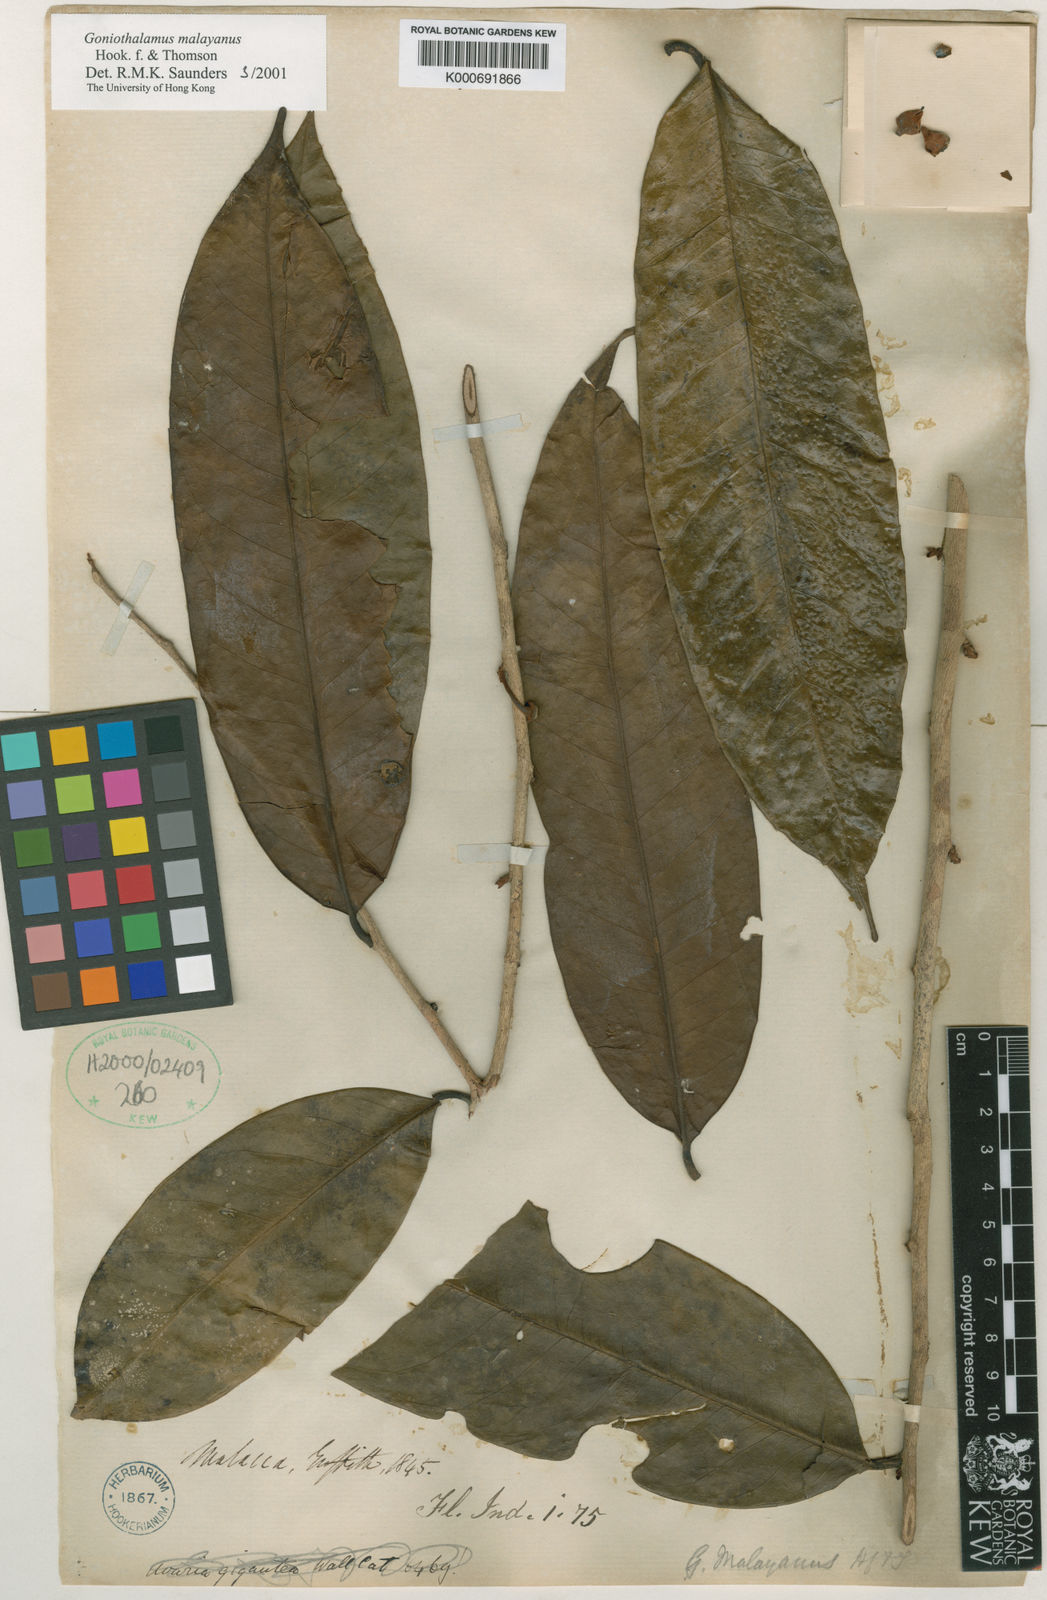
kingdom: Plantae
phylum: Tracheophyta
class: Magnoliopsida
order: Magnoliales
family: Annonaceae
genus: Goniothalamus
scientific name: Goniothalamus malayanus
